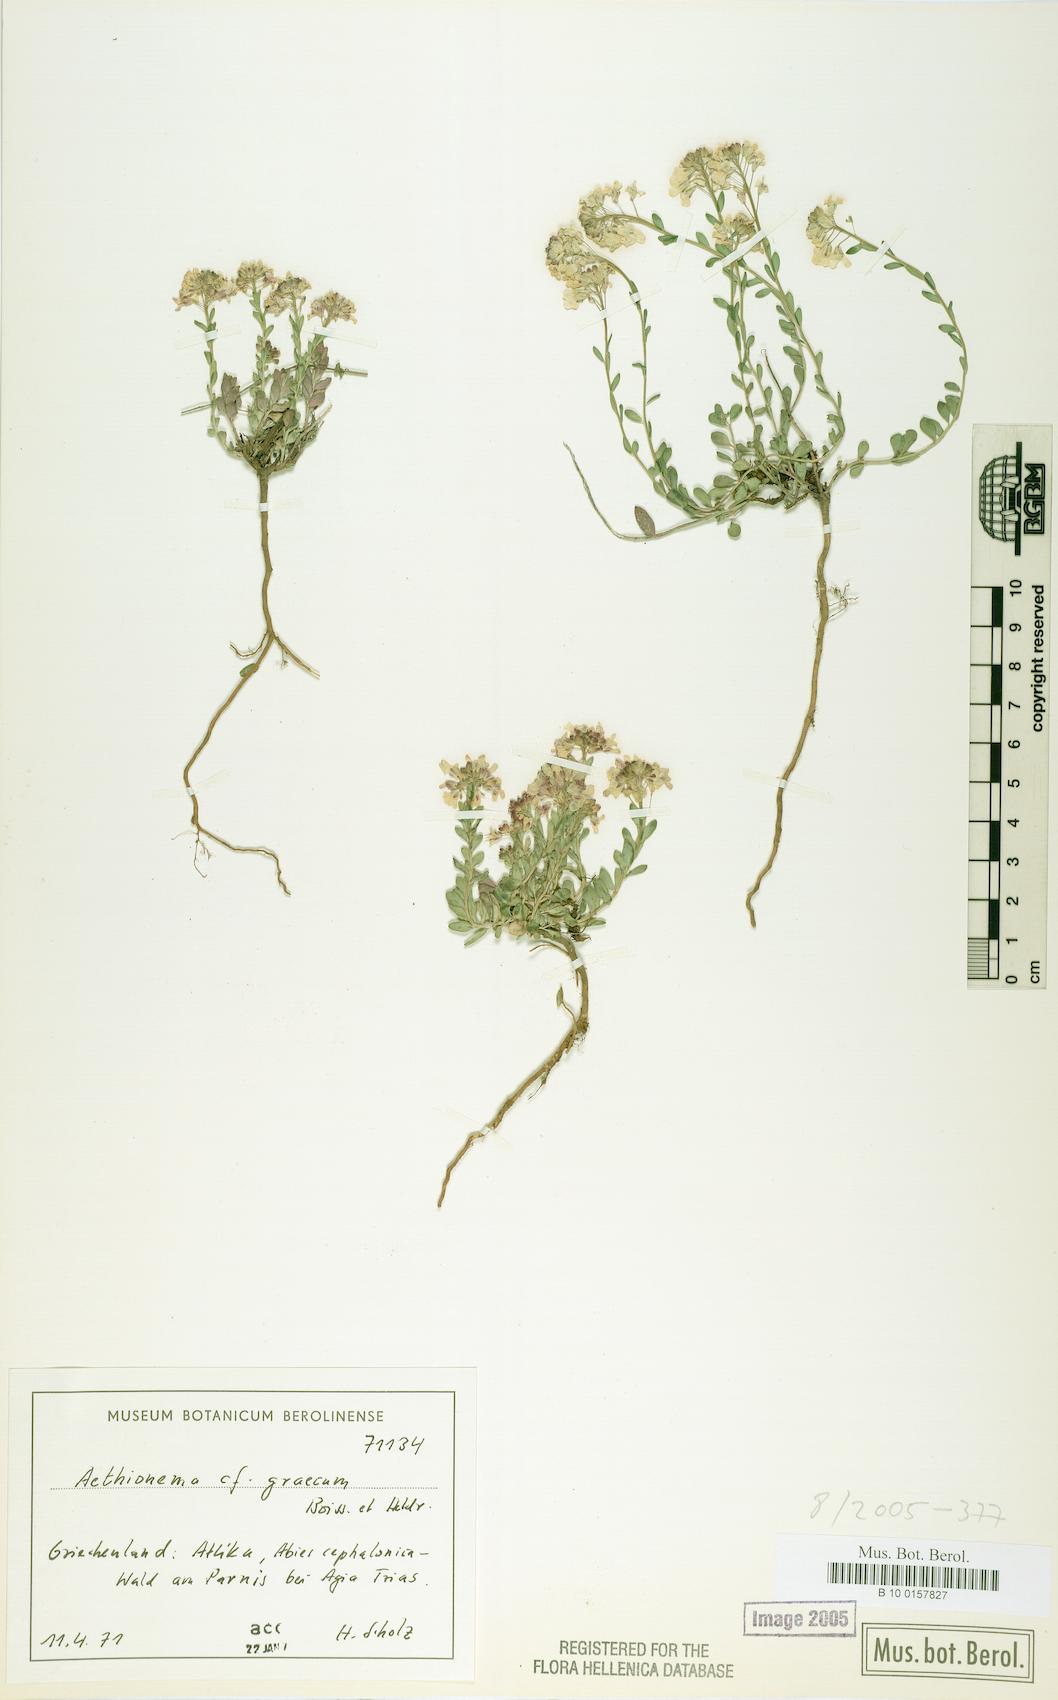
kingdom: Plantae
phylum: Tracheophyta
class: Magnoliopsida
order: Brassicales
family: Brassicaceae
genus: Aethionema
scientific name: Aethionema saxatile
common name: Burnt candytuft
